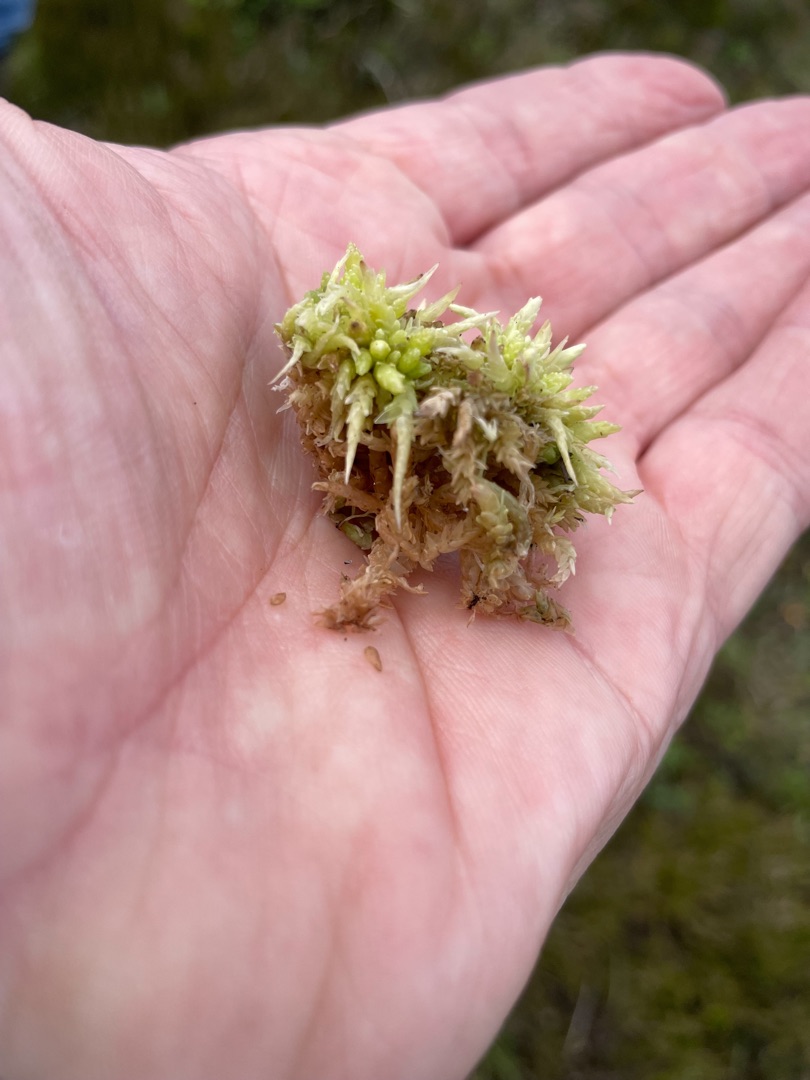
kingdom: Plantae
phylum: Bryophyta
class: Sphagnopsida
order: Sphagnales
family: Sphagnaceae
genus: Sphagnum
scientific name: Sphagnum palustre
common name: Almindelig tørvemos
